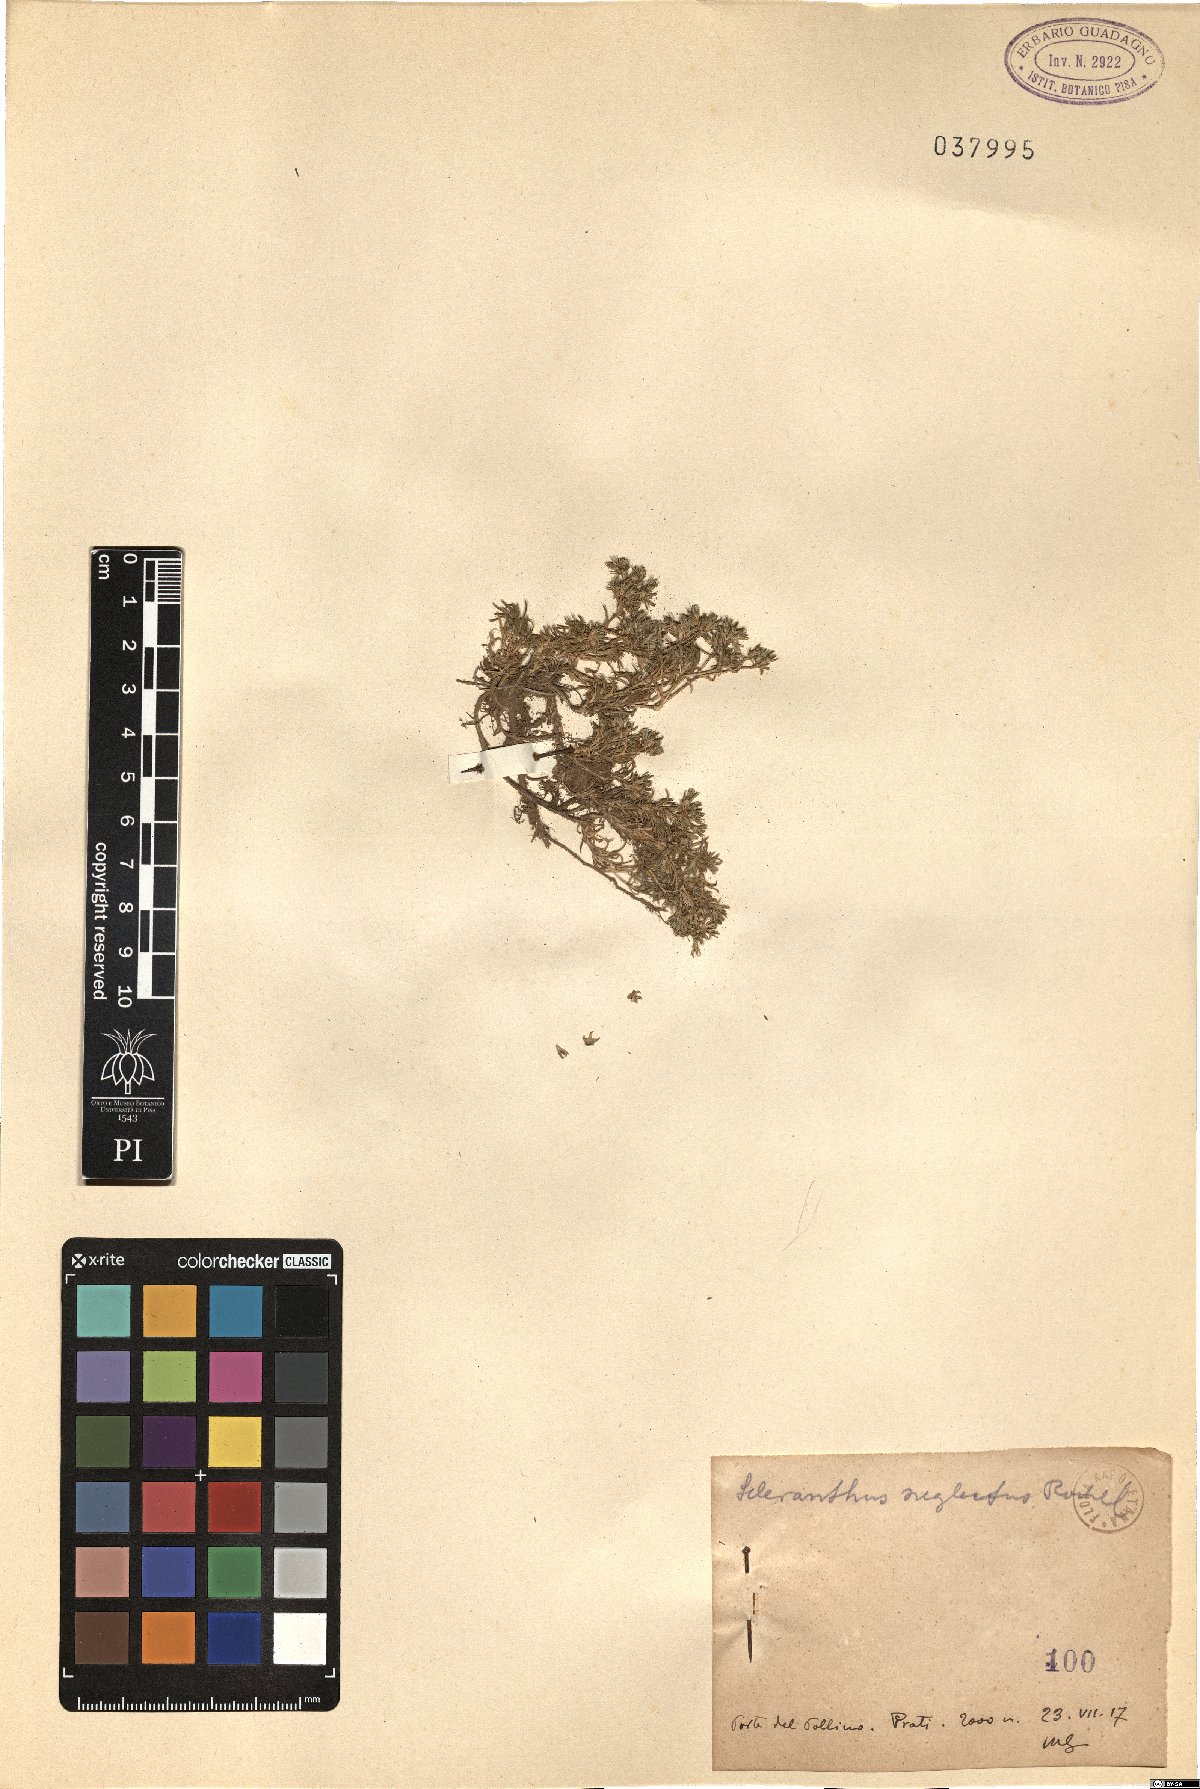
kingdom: Plantae
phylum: Tracheophyta
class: Magnoliopsida
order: Caryophyllales
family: Caryophyllaceae
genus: Scleranthus
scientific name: Scleranthus perennis
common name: Perennial knawel
